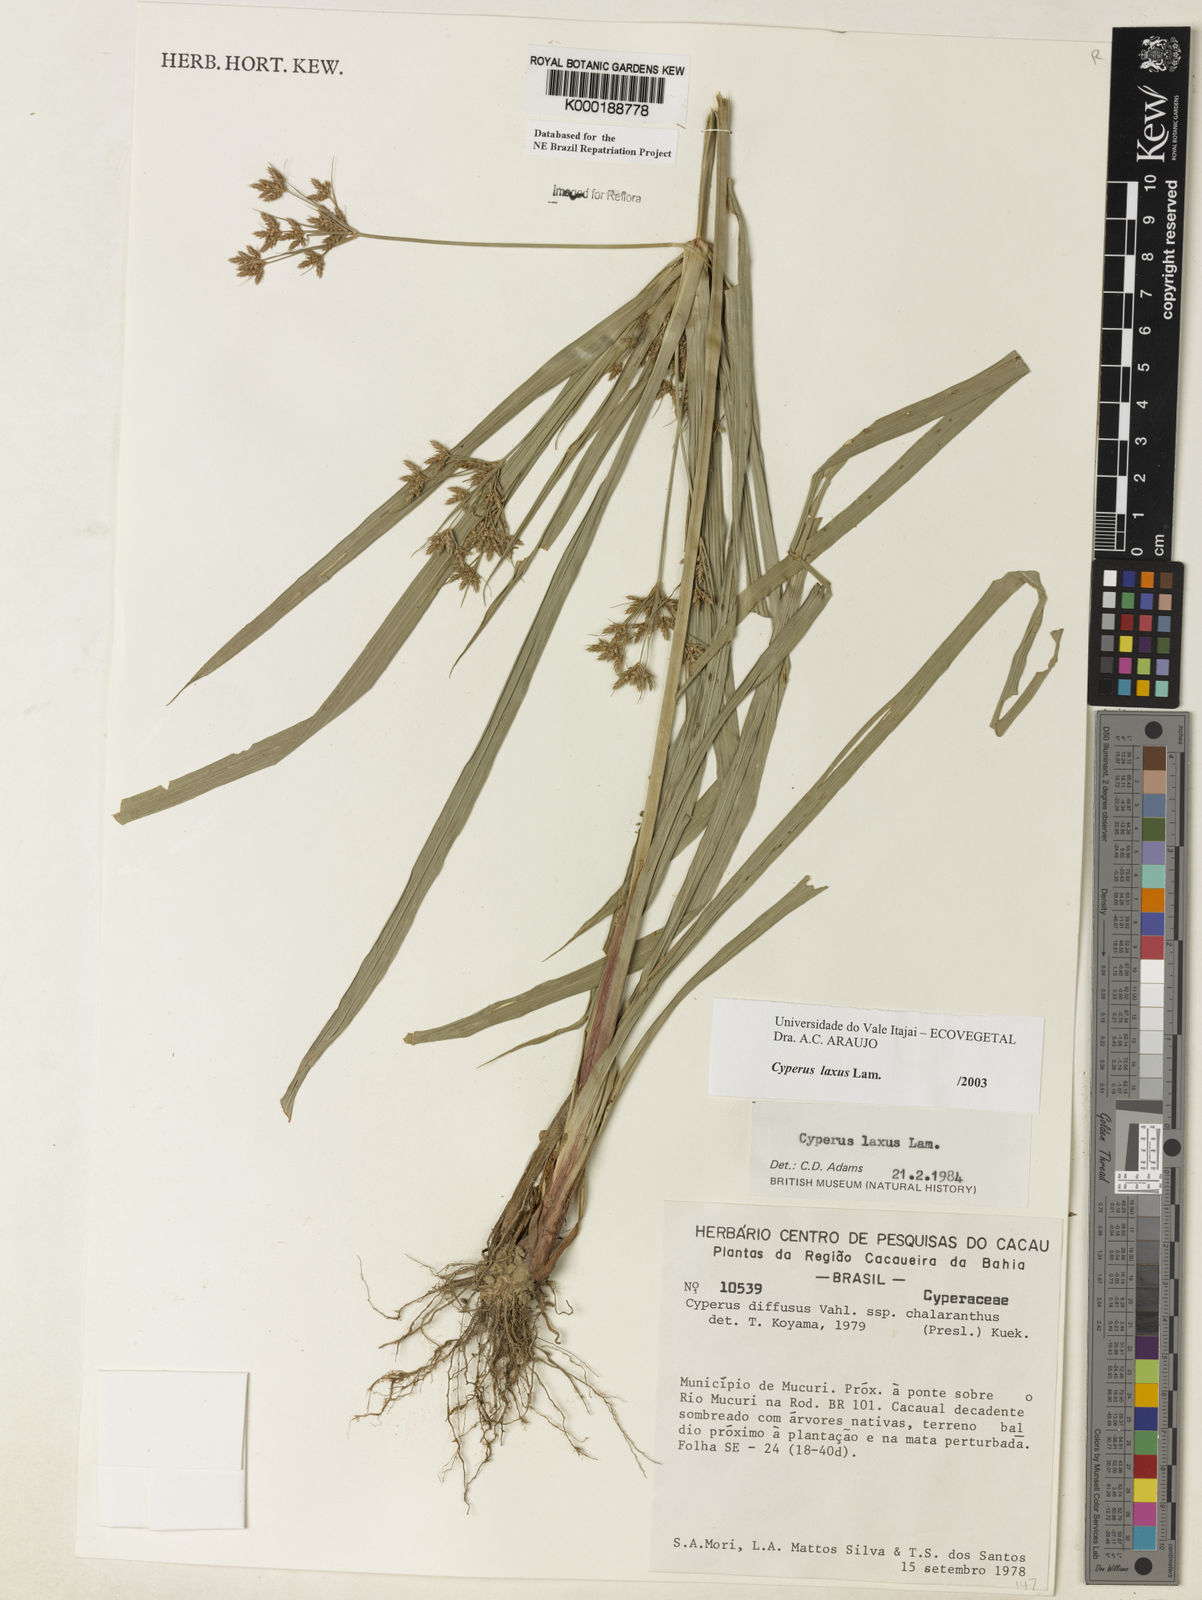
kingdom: Plantae
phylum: Tracheophyta
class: Liliopsida
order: Poales
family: Cyperaceae
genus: Cyperus
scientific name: Cyperus laxus
